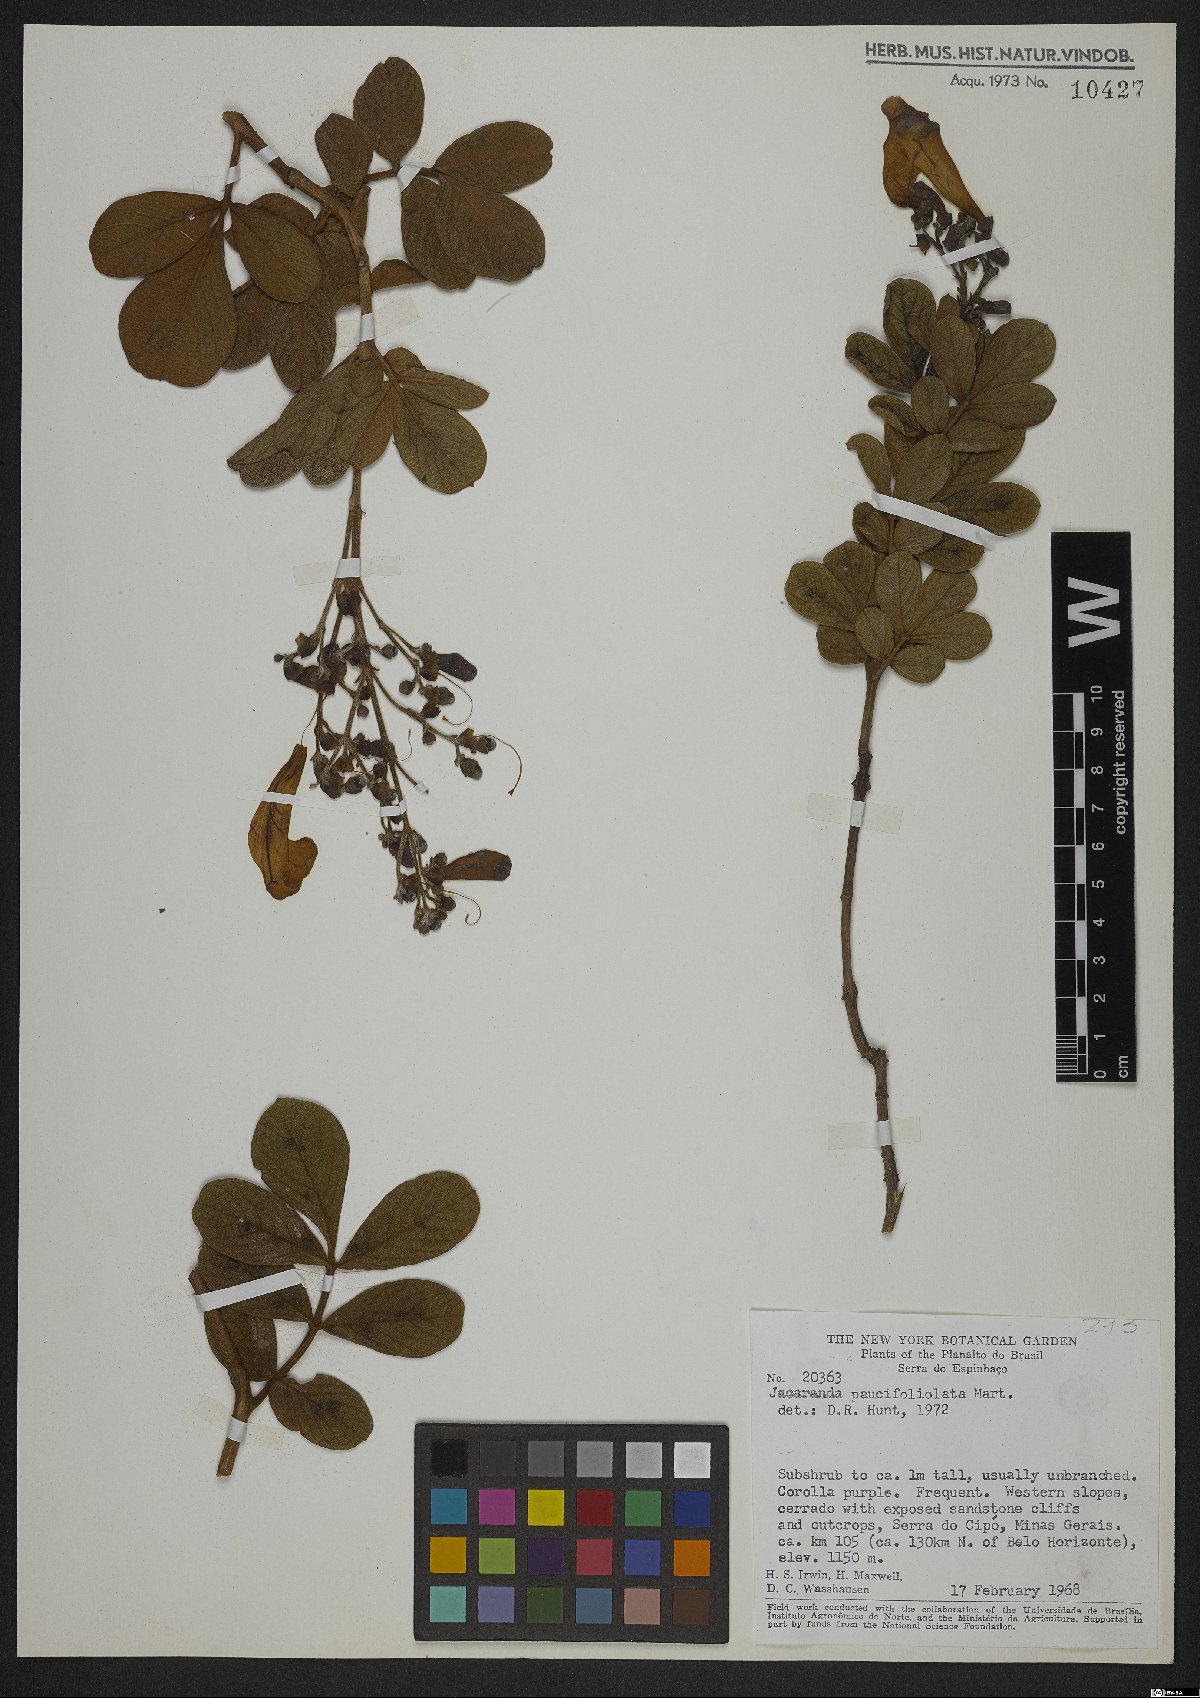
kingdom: Plantae
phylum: Tracheophyta
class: Magnoliopsida
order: Lamiales
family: Bignoniaceae
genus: Jacaranda
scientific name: Jacaranda paucifoliolata
